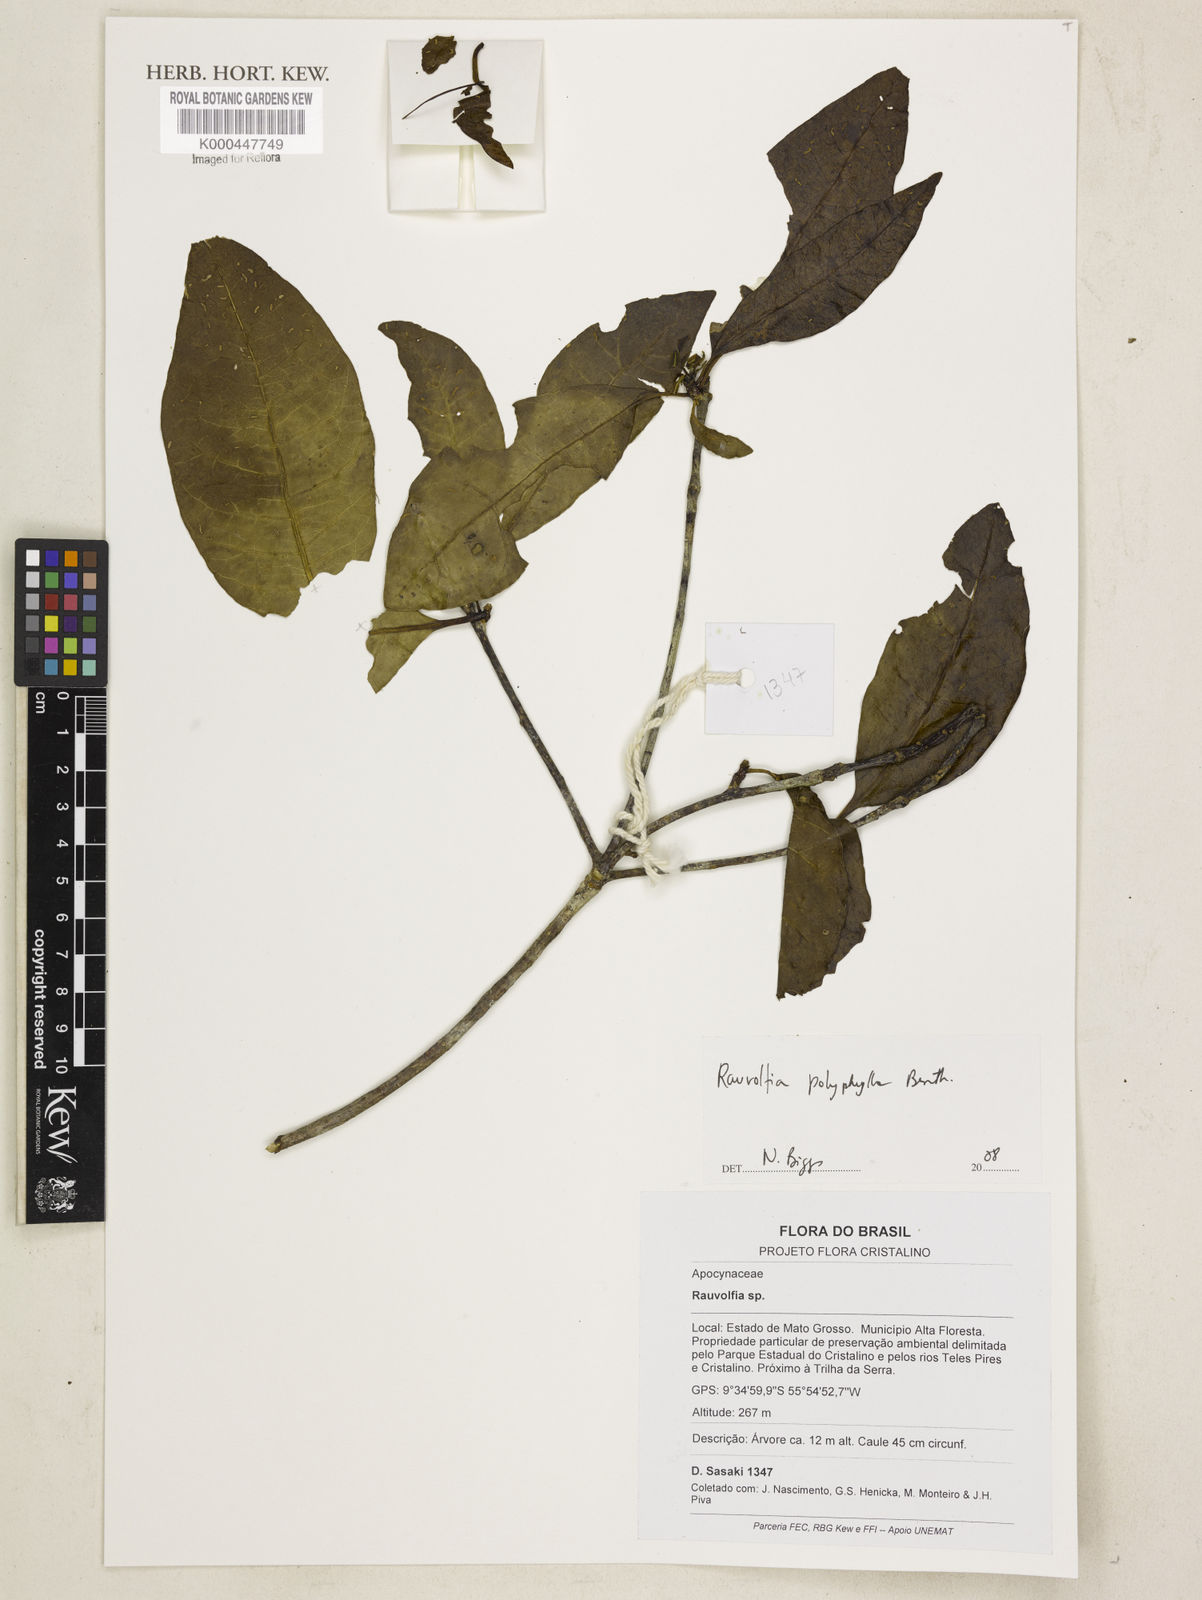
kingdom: Plantae
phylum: Tracheophyta
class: Magnoliopsida
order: Gentianales
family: Apocynaceae
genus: Rauvolfia
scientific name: Rauvolfia polyphylla
